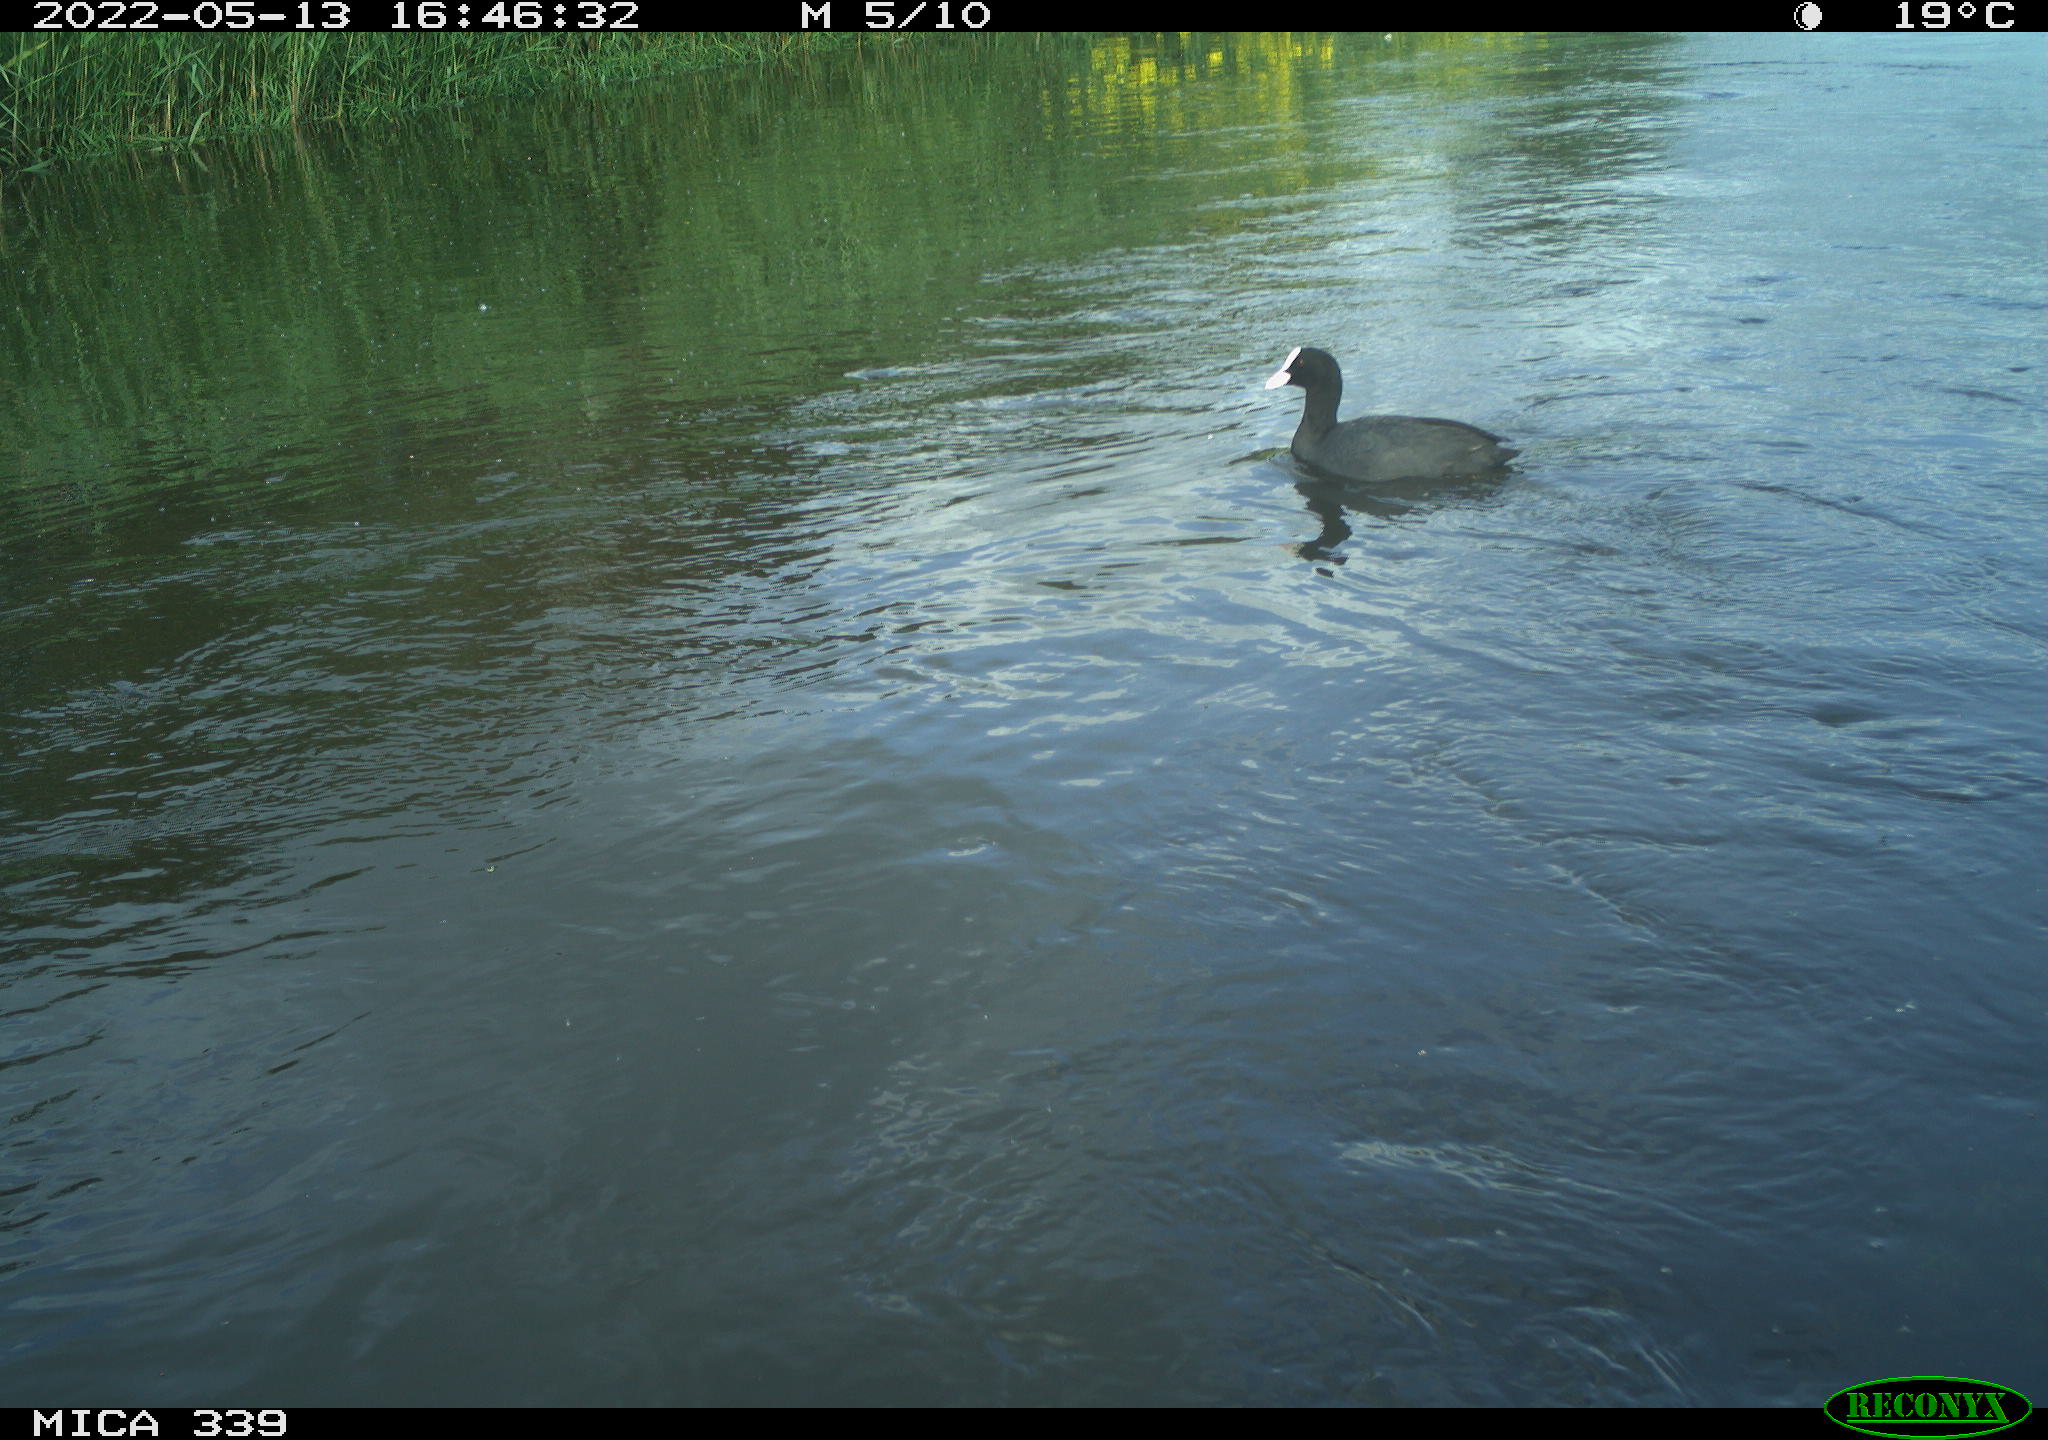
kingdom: Animalia
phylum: Chordata
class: Aves
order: Gruiformes
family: Rallidae
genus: Fulica
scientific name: Fulica atra
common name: Eurasian coot
